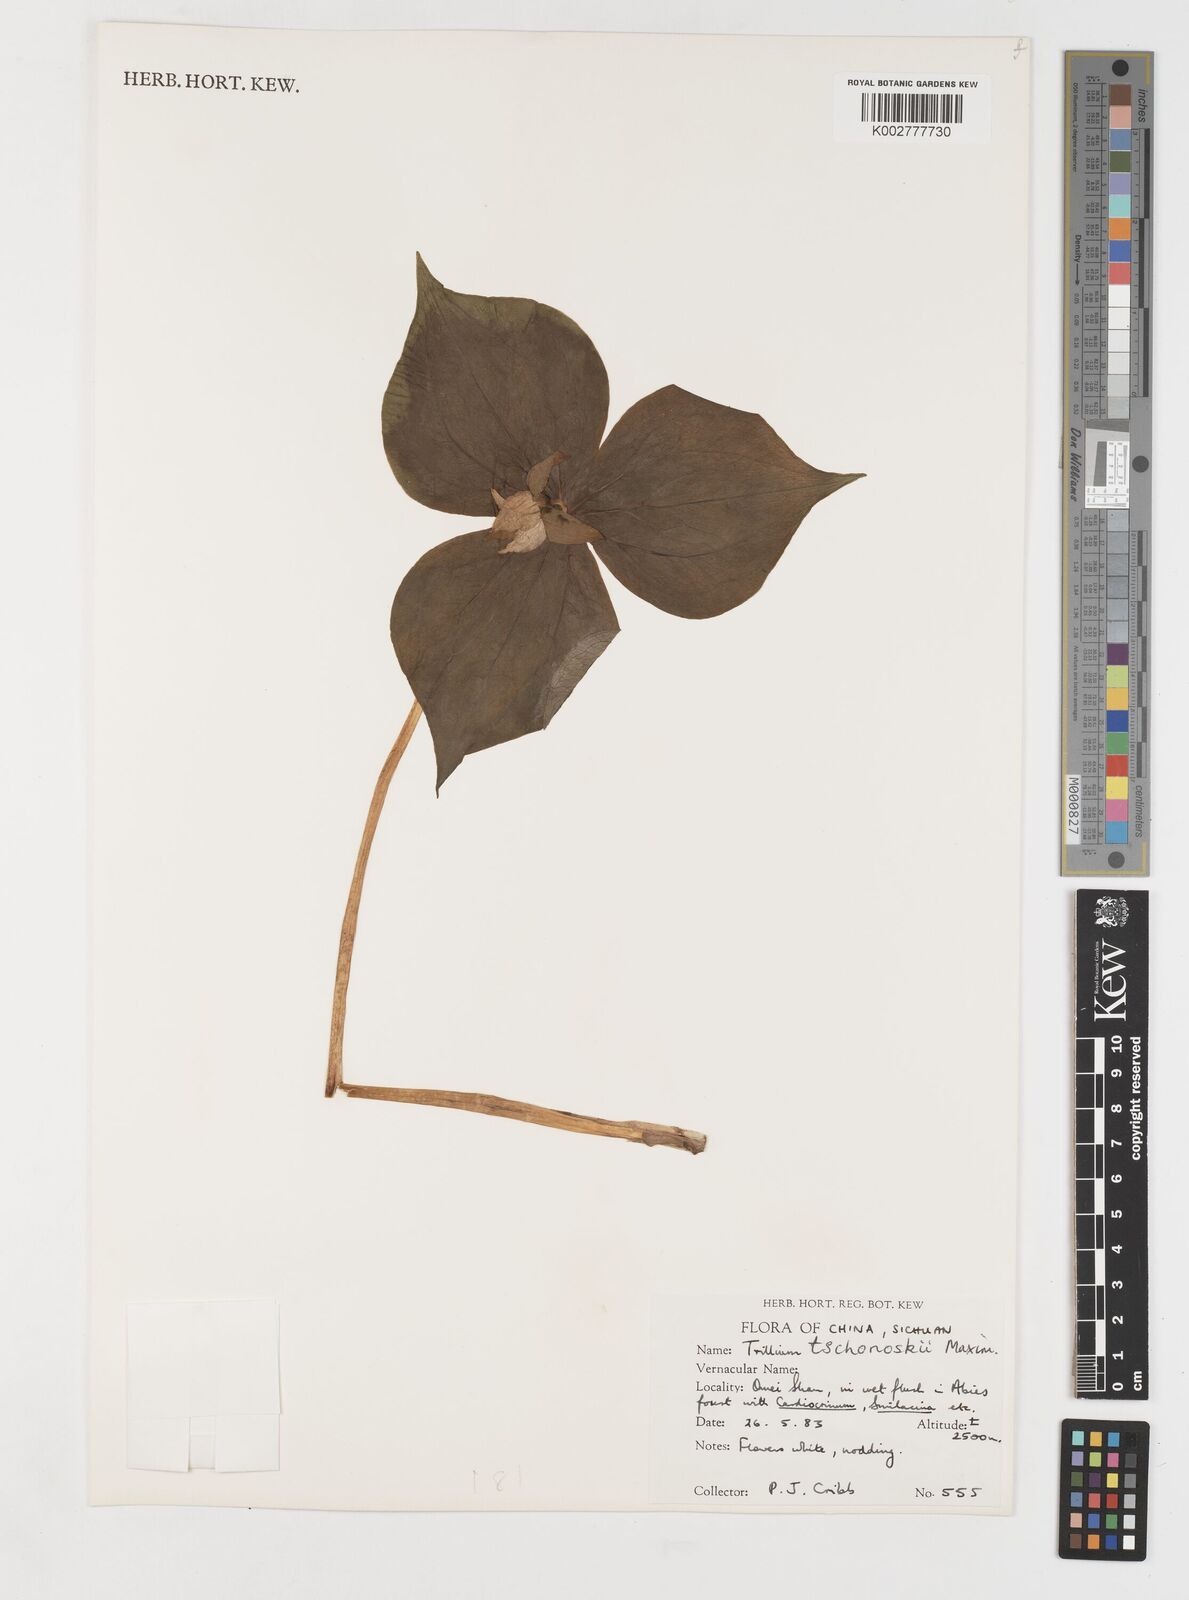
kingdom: Plantae
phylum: Tracheophyta
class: Liliopsida
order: Liliales
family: Melanthiaceae
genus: Trillium
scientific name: Trillium tschonoskii
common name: A pearl on head
